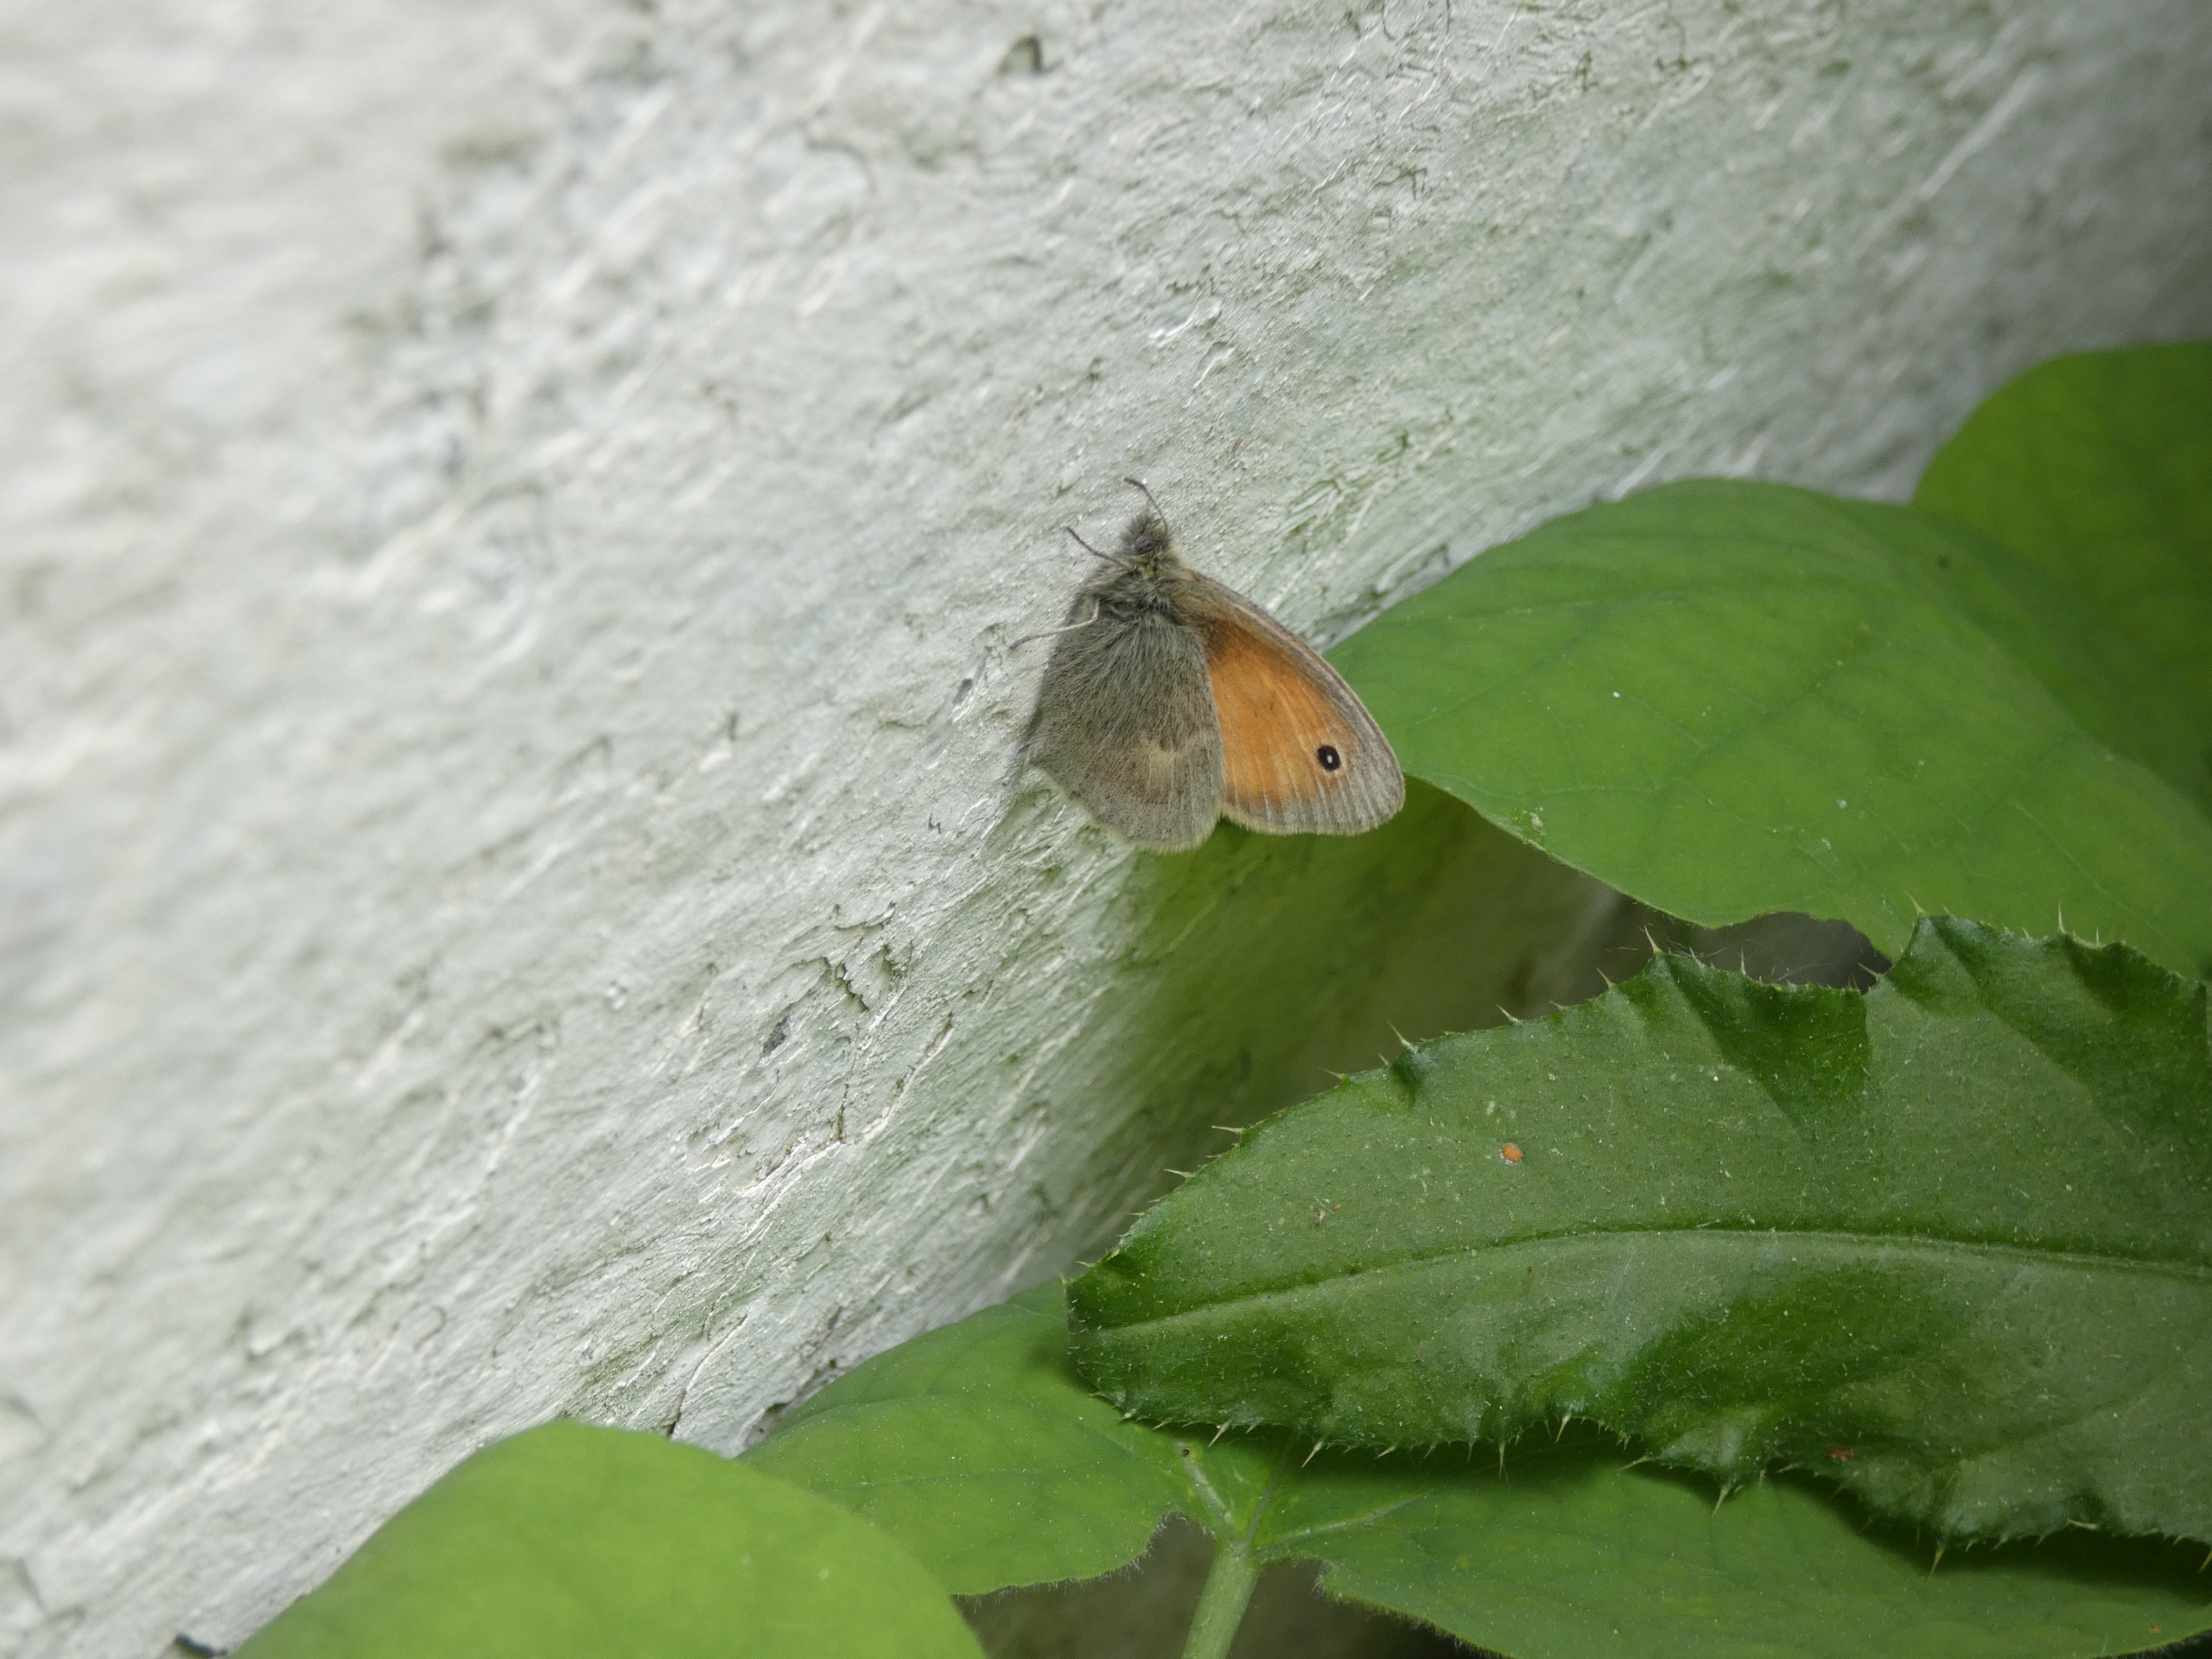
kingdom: Animalia
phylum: Arthropoda
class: Insecta
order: Lepidoptera
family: Nymphalidae
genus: Coenonympha
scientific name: Coenonympha pamphilus
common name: Okkergul randøje
